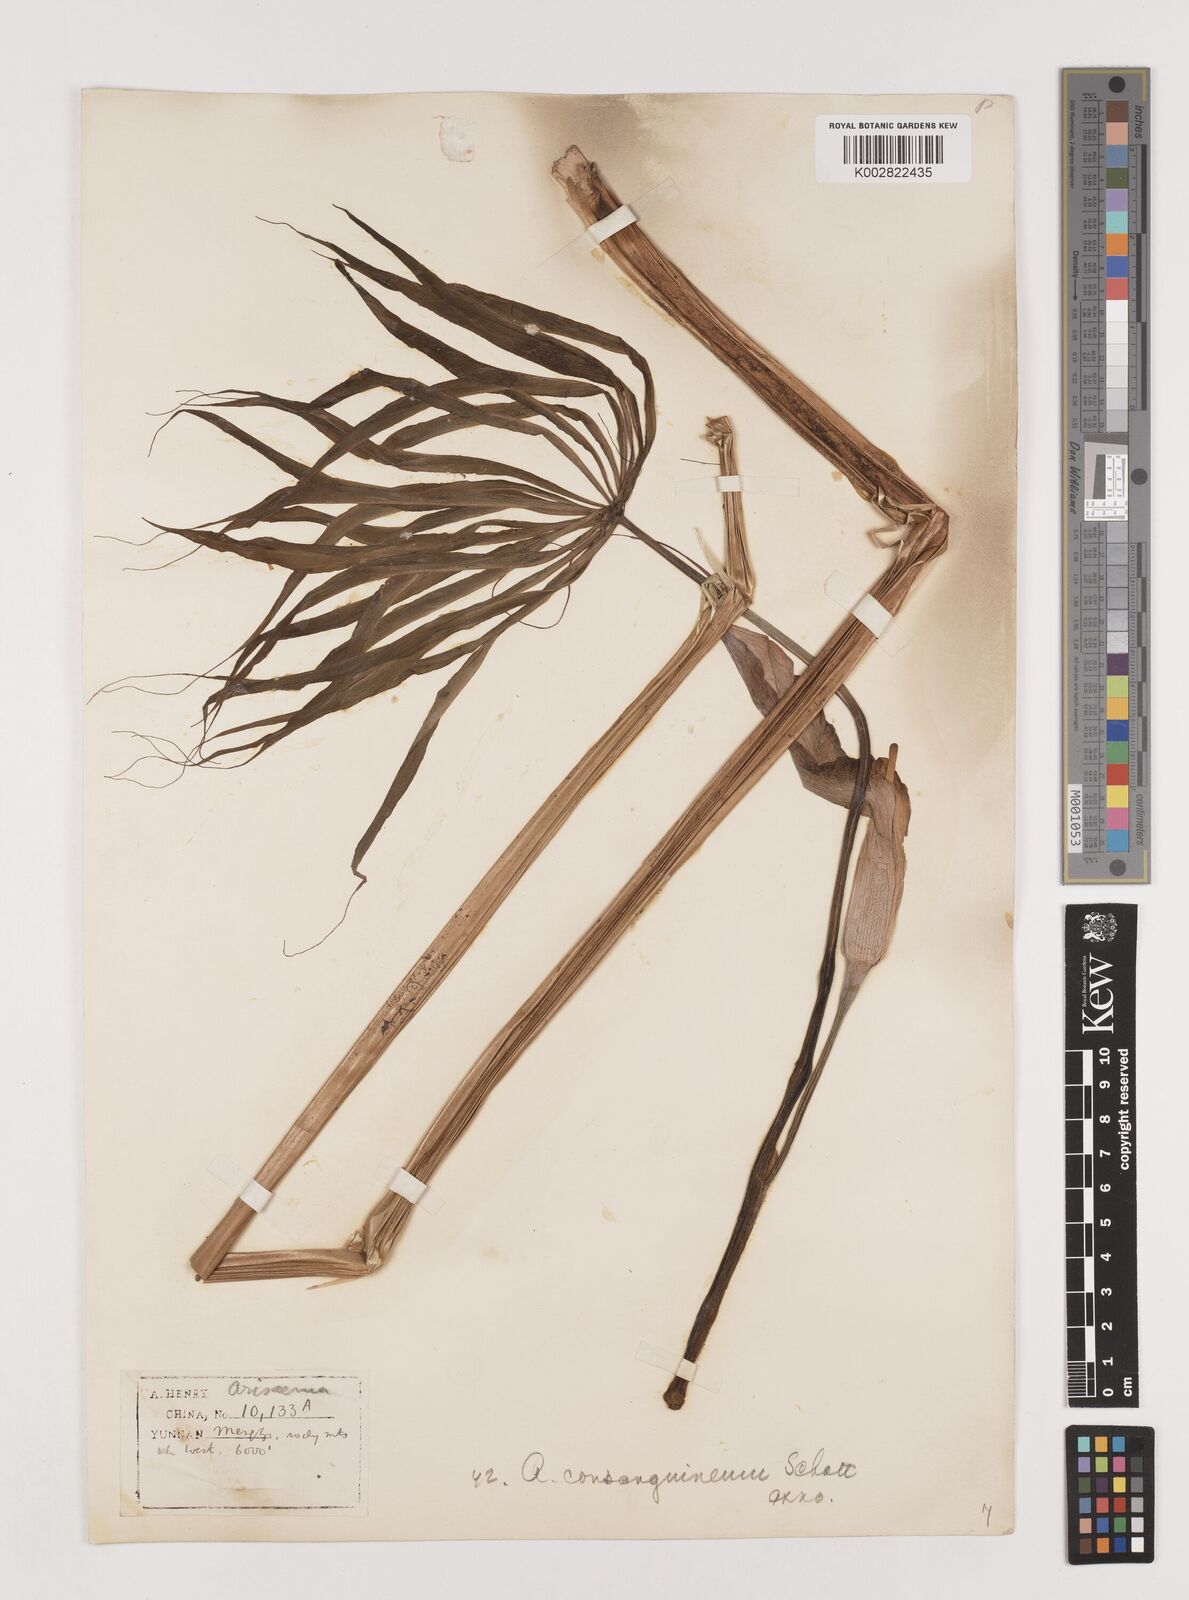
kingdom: Plantae
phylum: Tracheophyta
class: Liliopsida
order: Alismatales
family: Araceae
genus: Arisaema
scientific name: Arisaema erubescens
